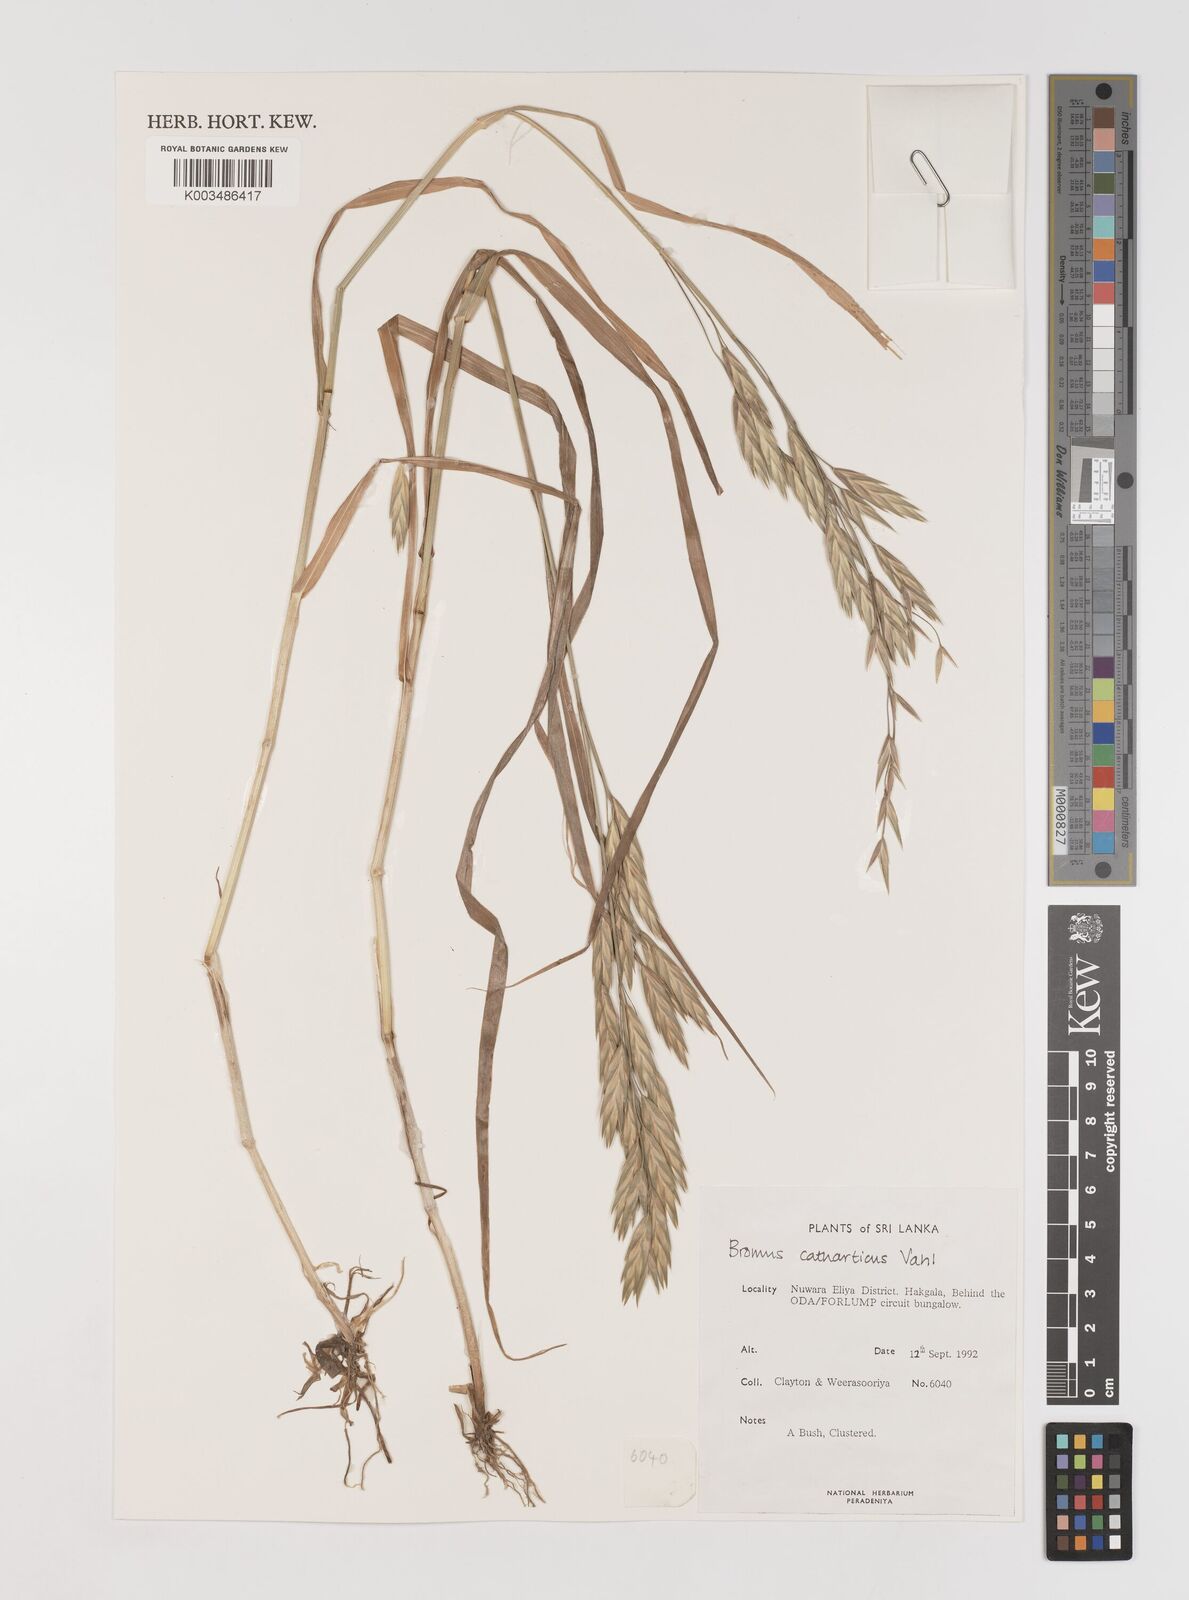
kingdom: Plantae
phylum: Tracheophyta
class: Liliopsida
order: Poales
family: Poaceae
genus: Bromus
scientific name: Bromus catharticus
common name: Rescuegrass
